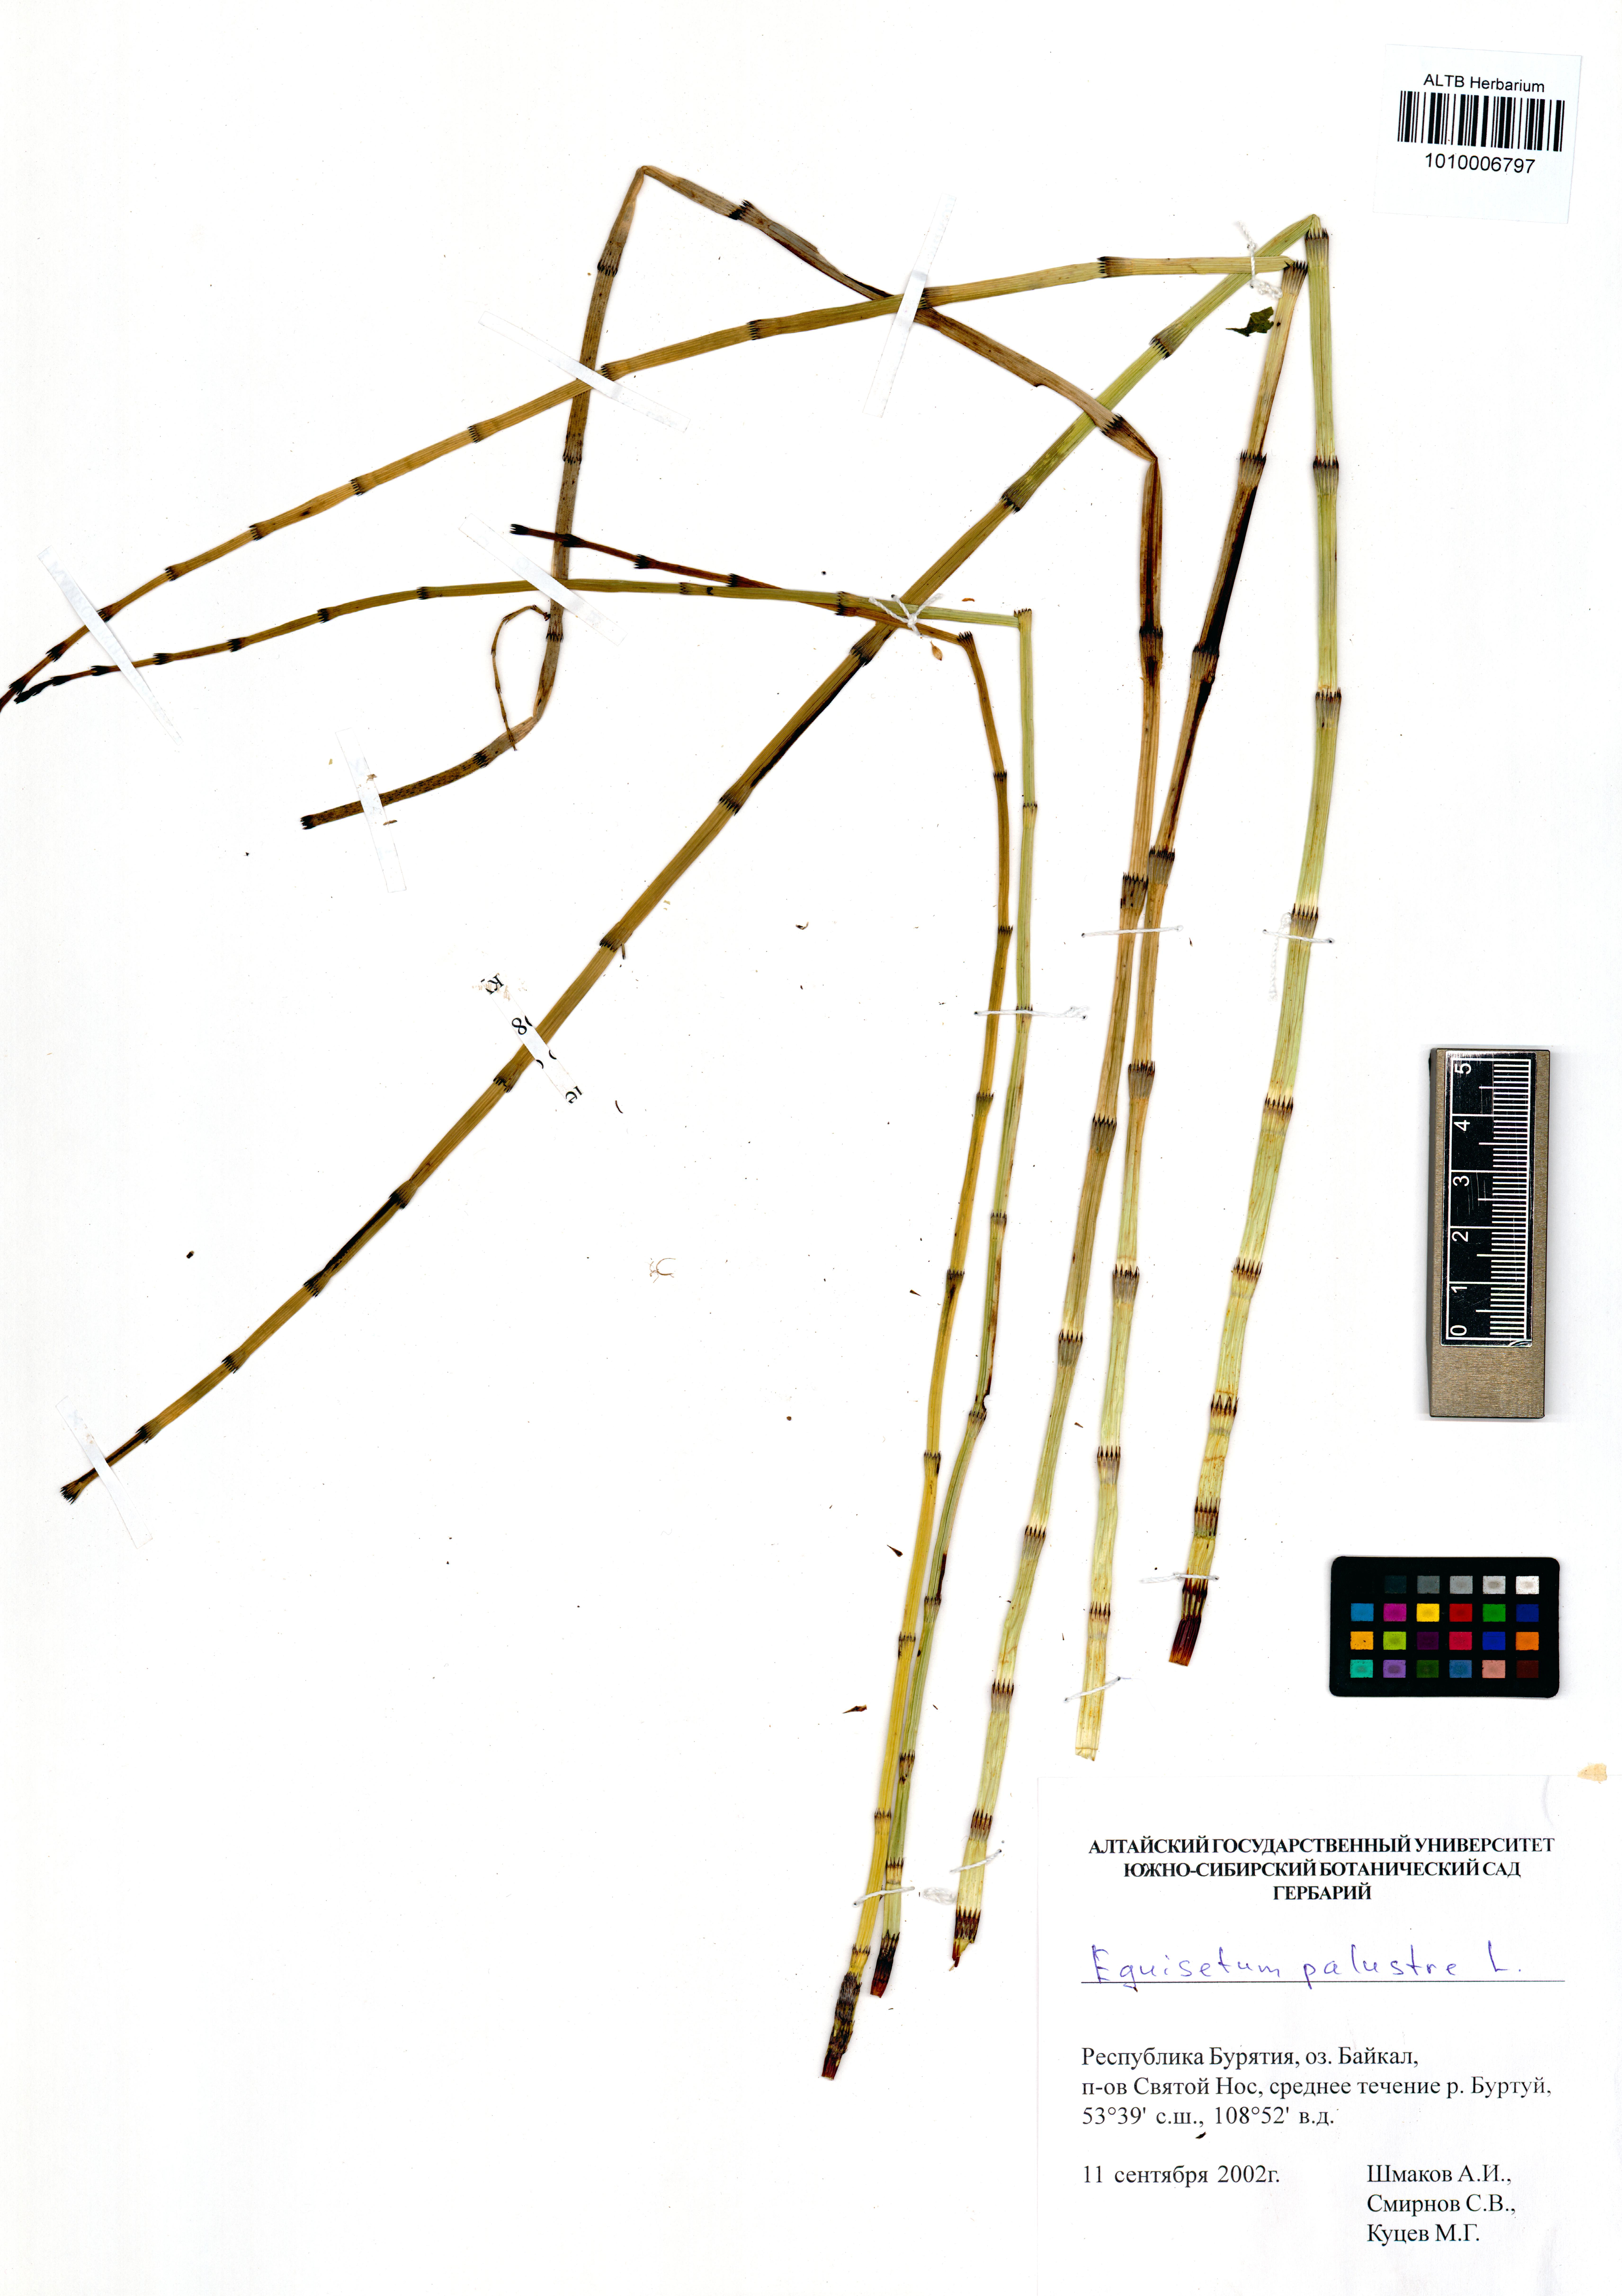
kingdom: Plantae
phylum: Tracheophyta
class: Polypodiopsida
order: Equisetales
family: Equisetaceae
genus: Equisetum
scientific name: Equisetum palustre
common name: Marsh horsetail
